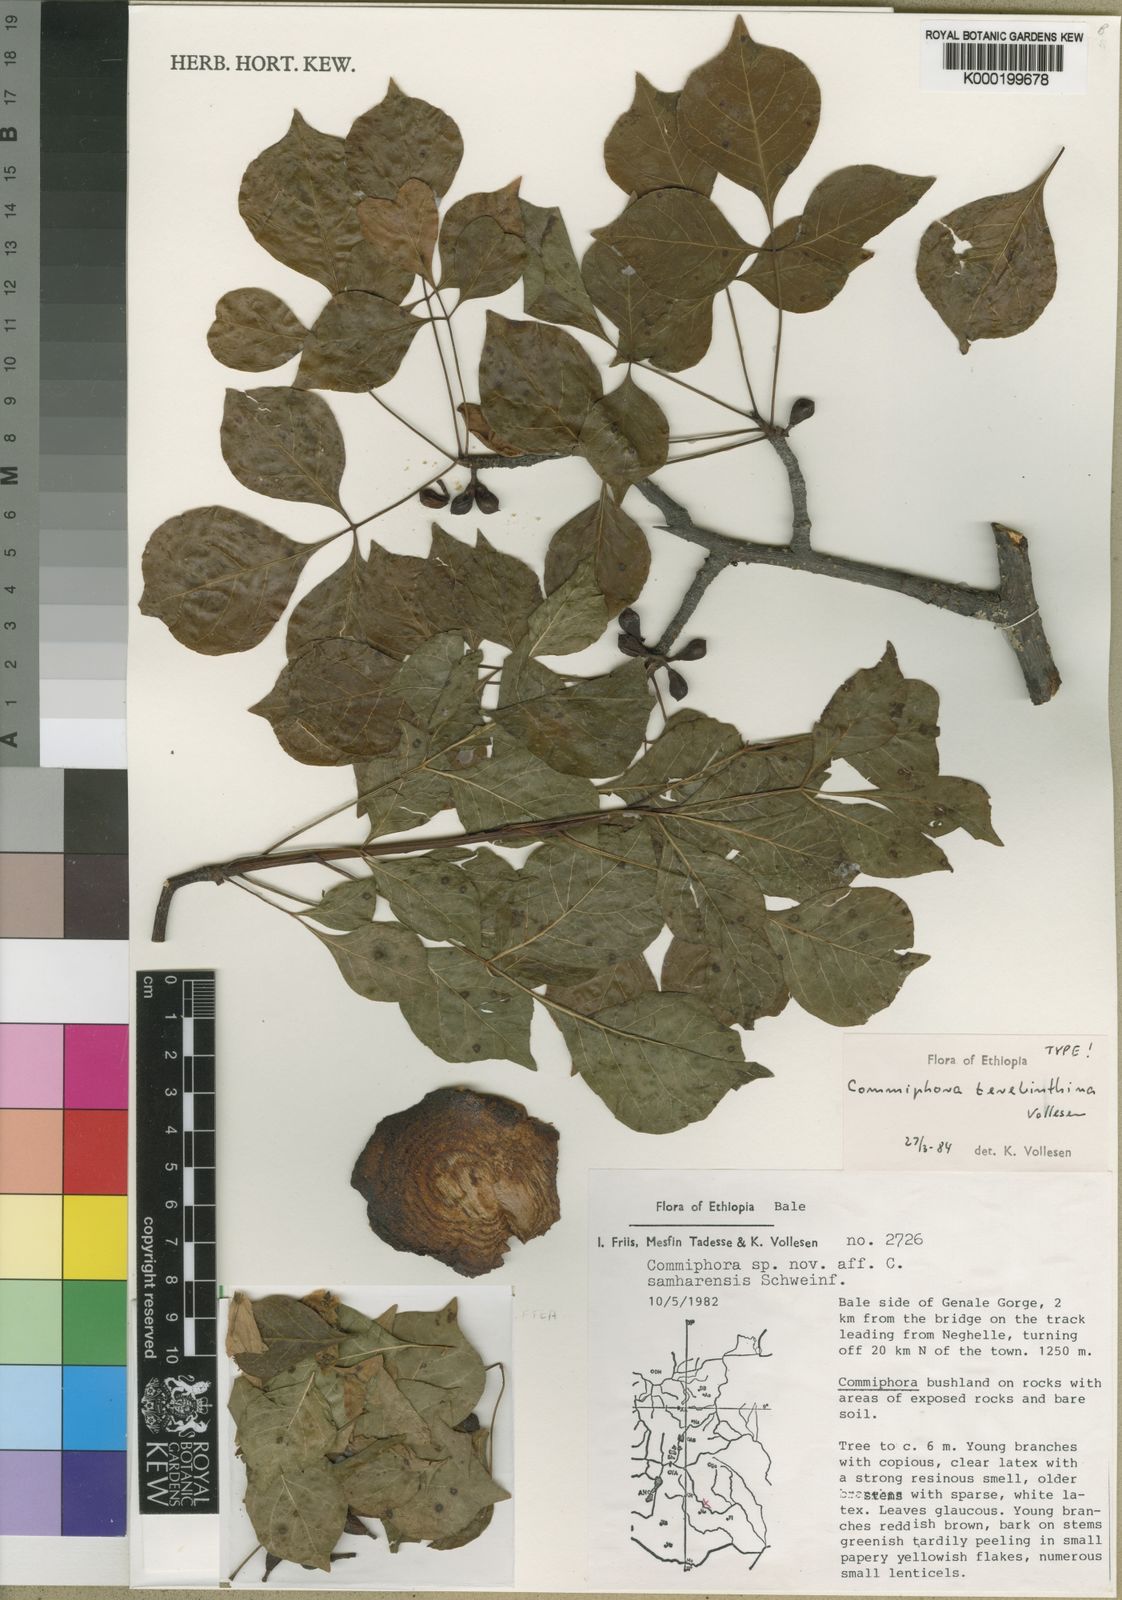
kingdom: Plantae
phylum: Tracheophyta
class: Magnoliopsida
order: Sapindales
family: Burseraceae
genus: Commiphora
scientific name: Commiphora samharensis
